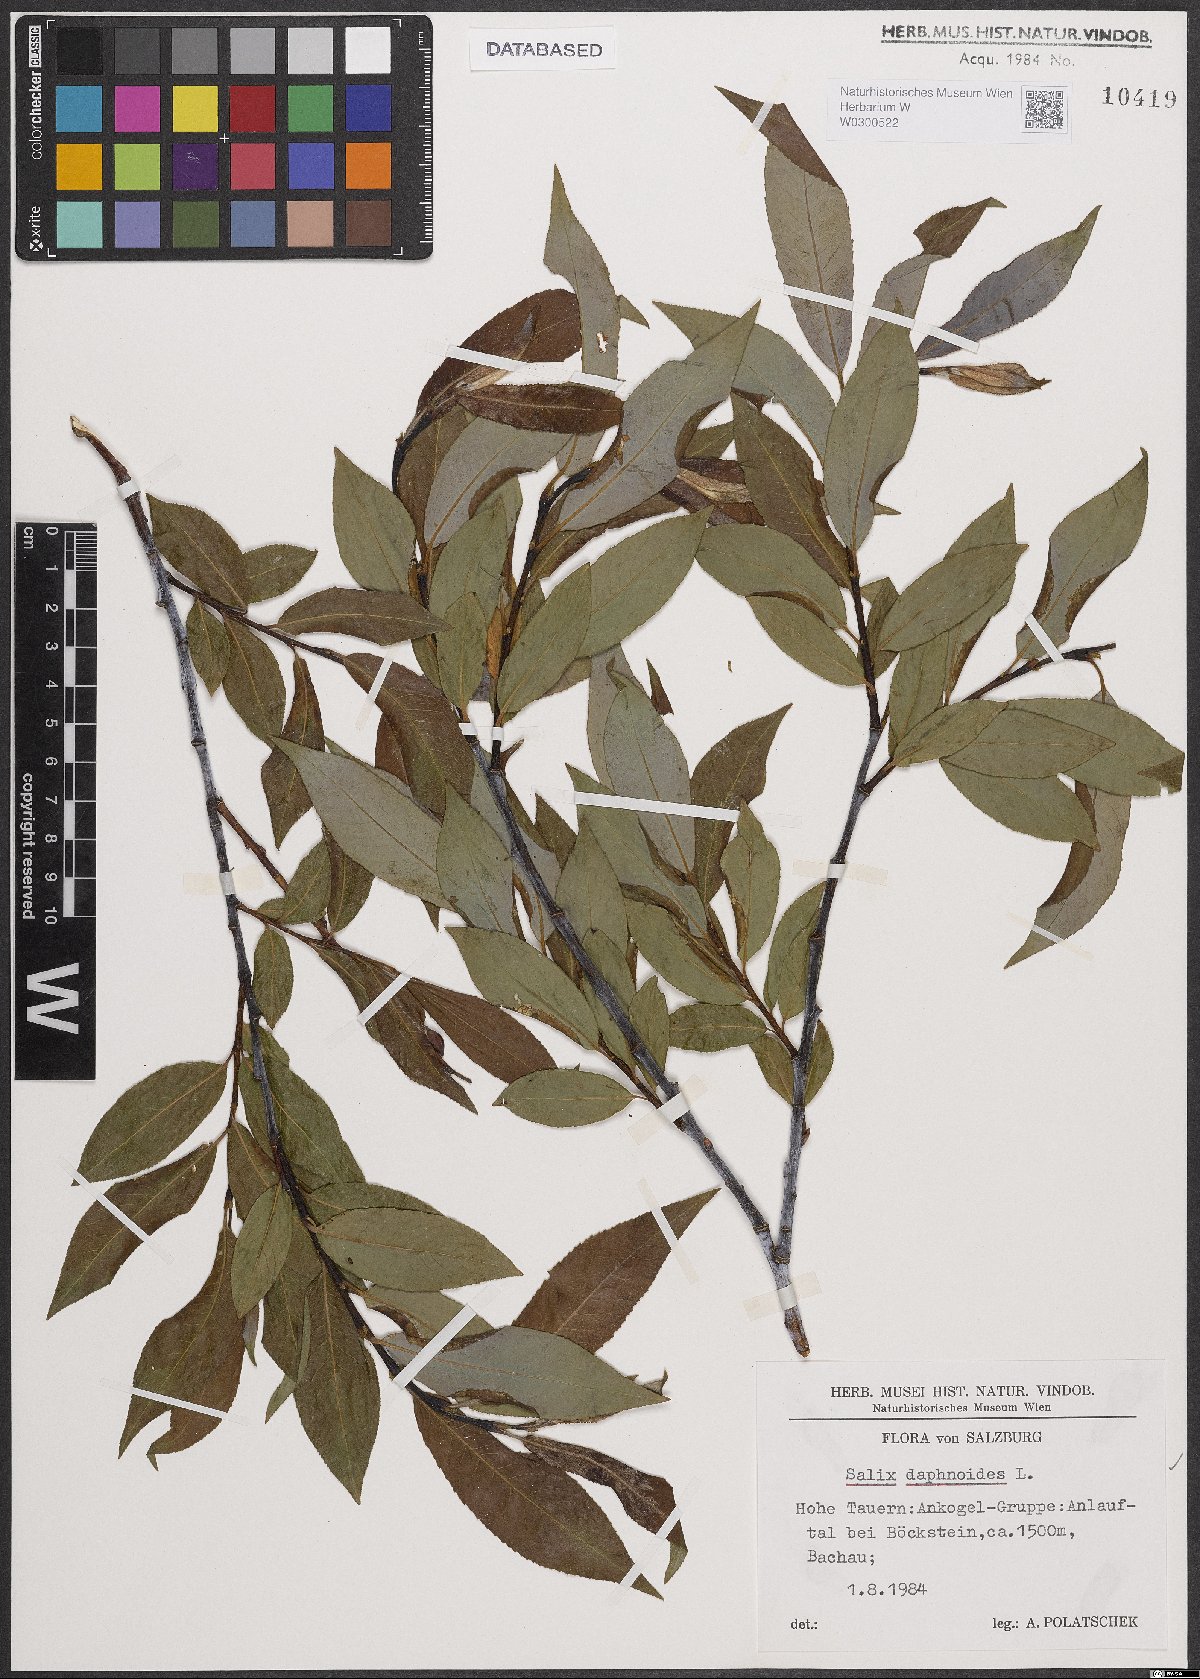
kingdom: Plantae
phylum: Tracheophyta
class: Magnoliopsida
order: Malpighiales
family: Salicaceae
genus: Salix
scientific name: Salix daphnoides
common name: European violet-willow
